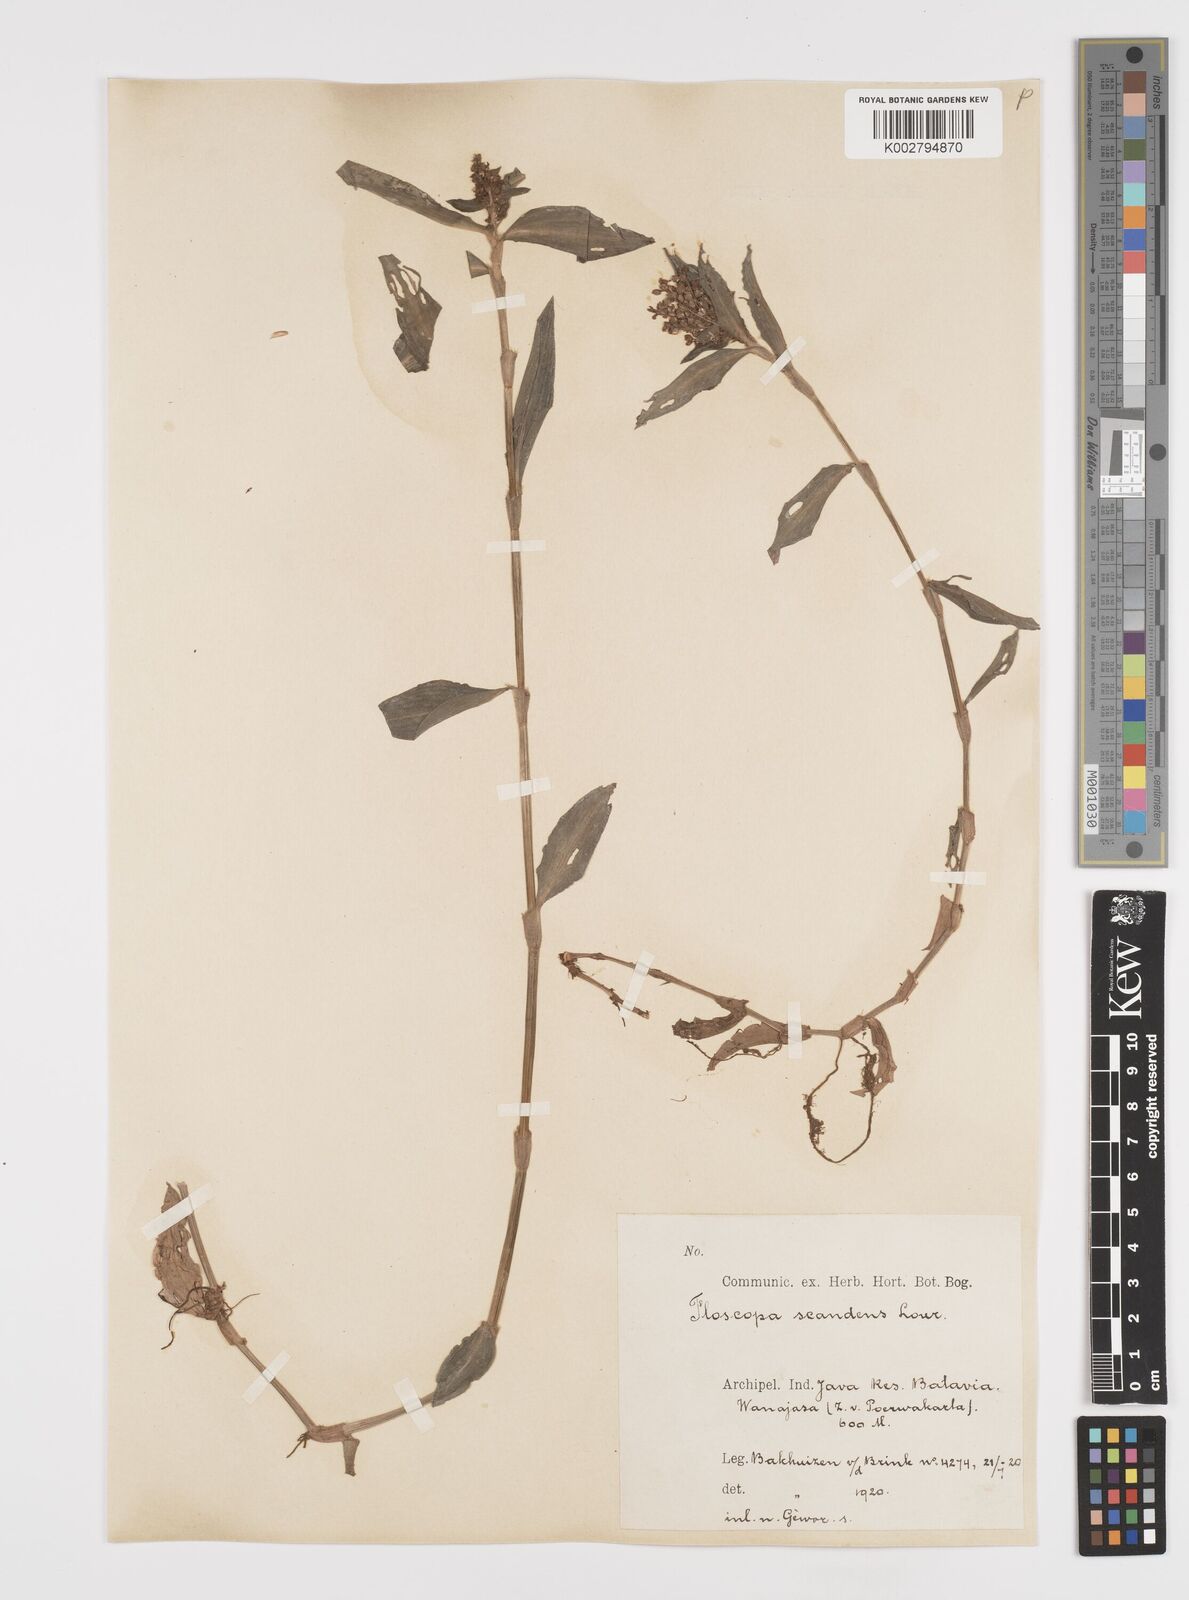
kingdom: Plantae
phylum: Tracheophyta
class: Liliopsida
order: Commelinales
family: Commelinaceae
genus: Floscopa
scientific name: Floscopa scandens
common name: Climbing flower cup
